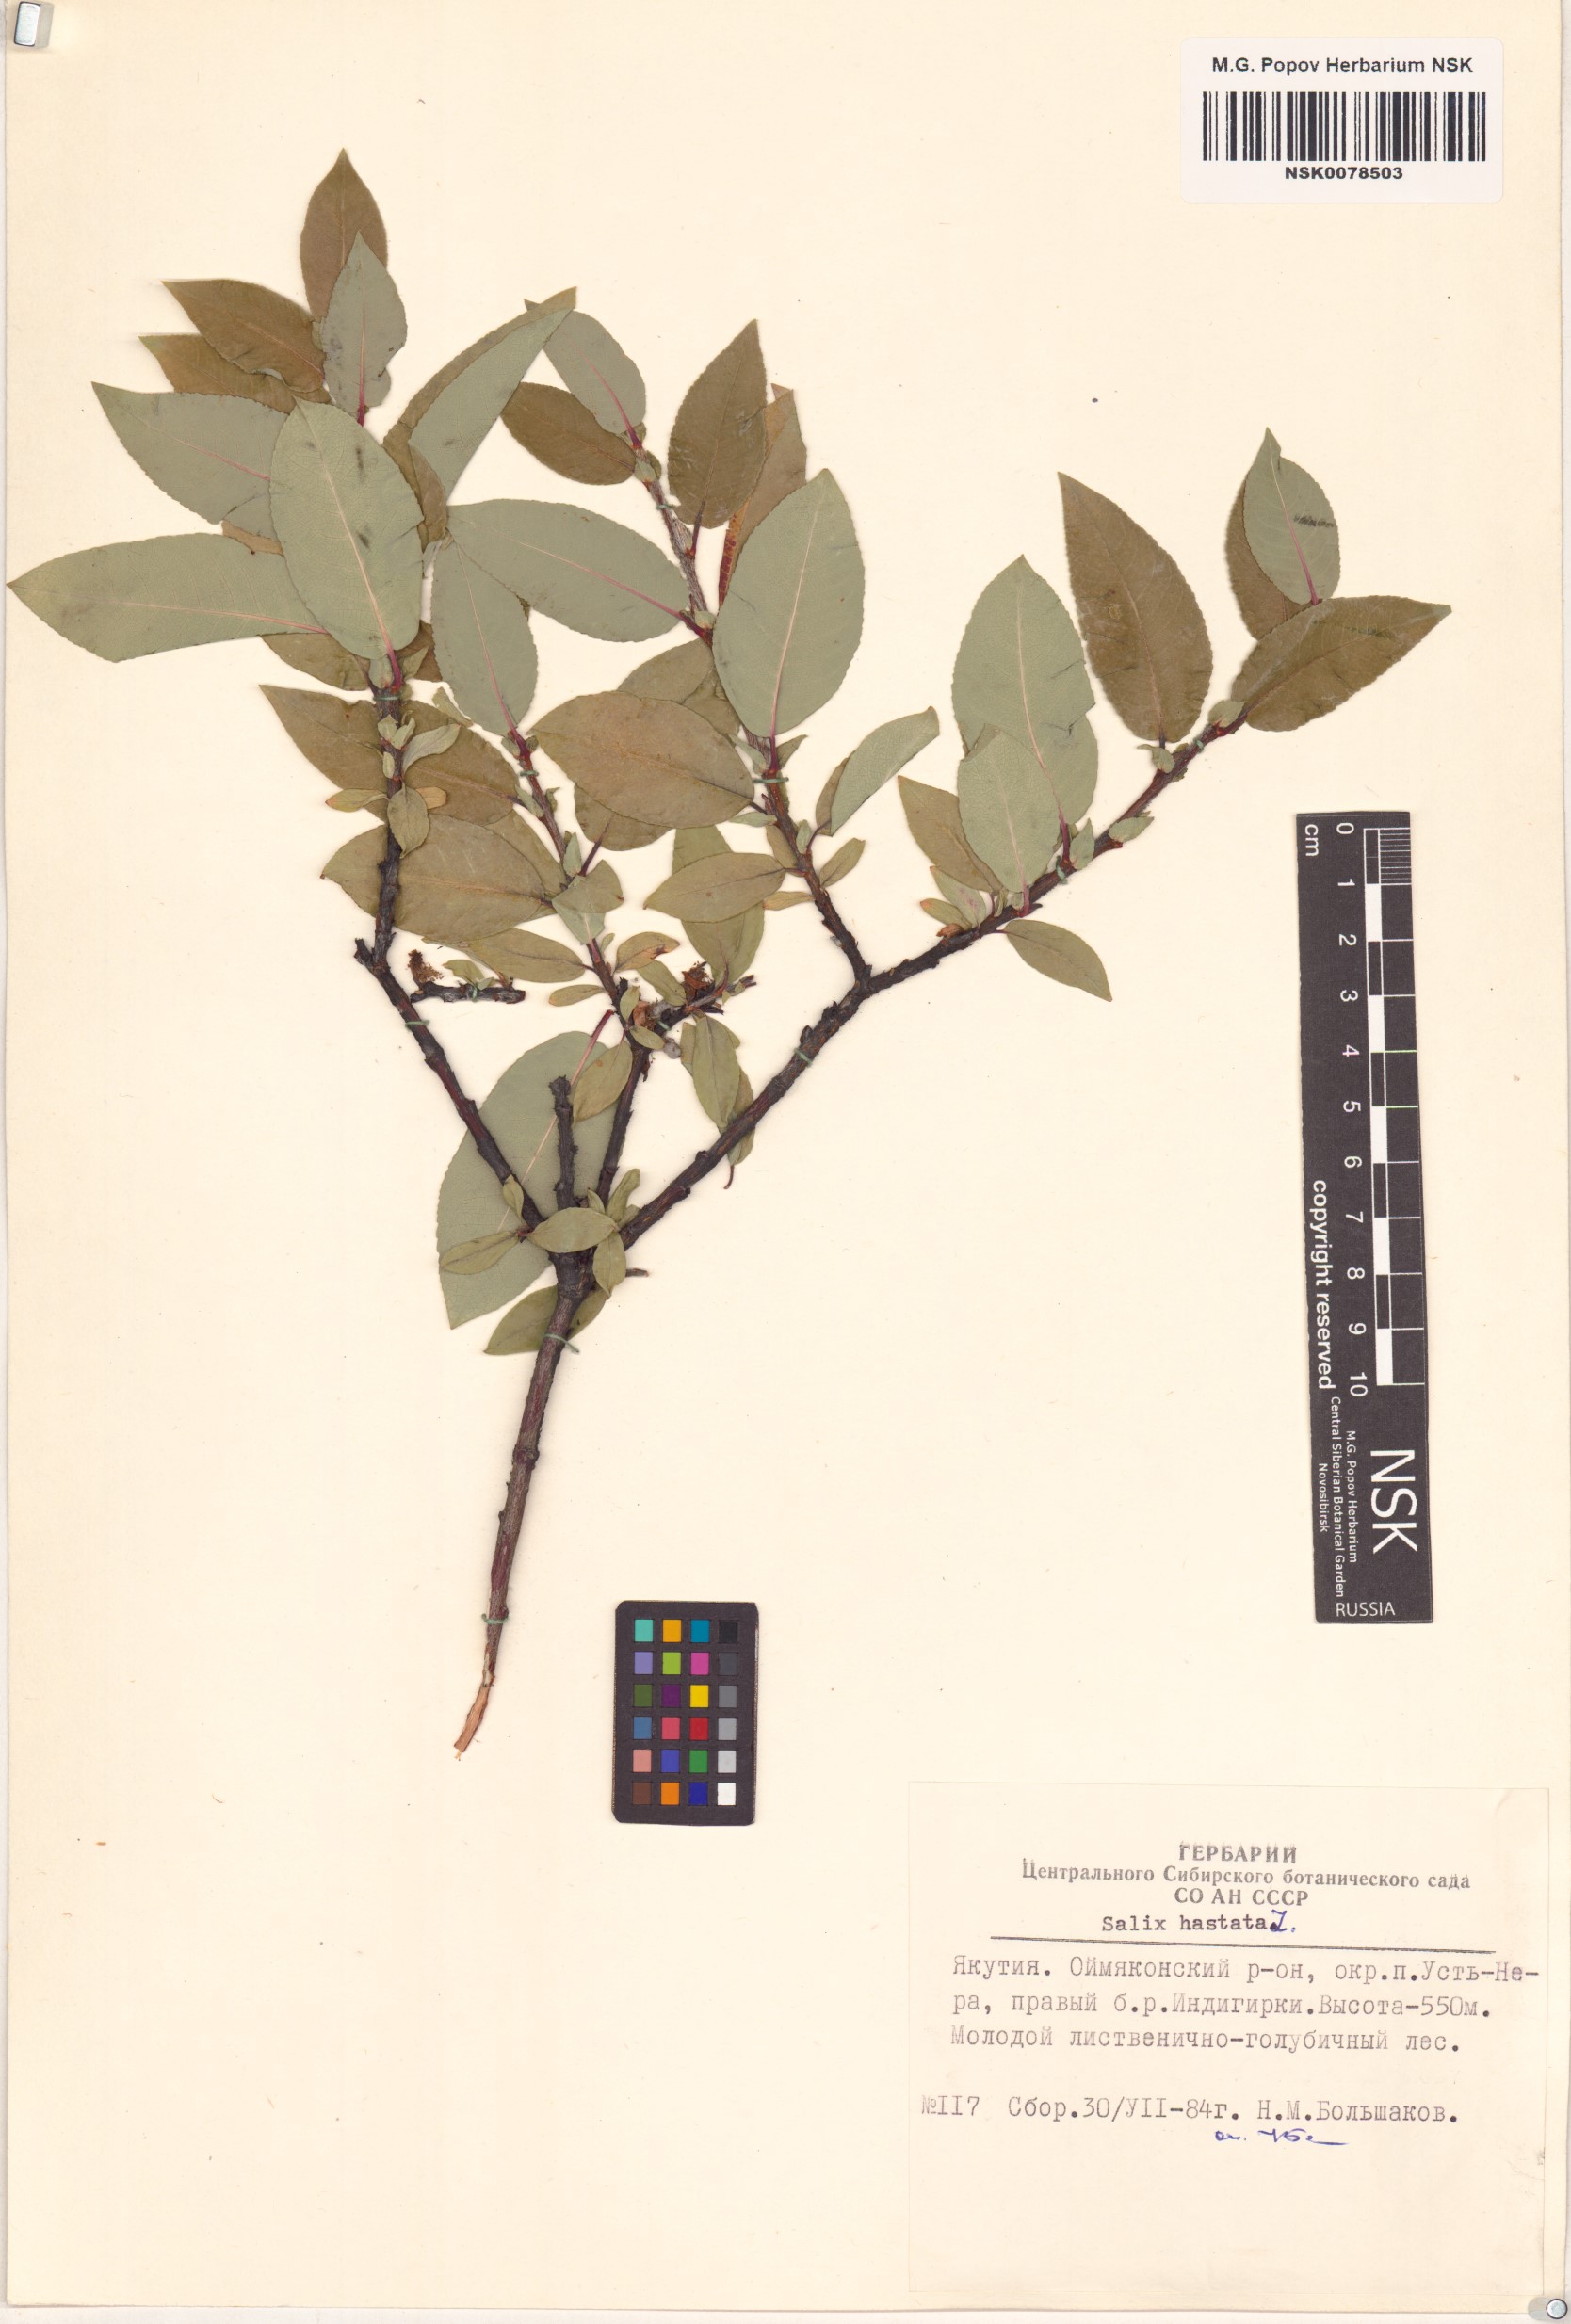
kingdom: Plantae
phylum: Tracheophyta
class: Magnoliopsida
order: Malpighiales
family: Salicaceae
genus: Salix
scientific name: Salix hastata
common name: Halberd willow
